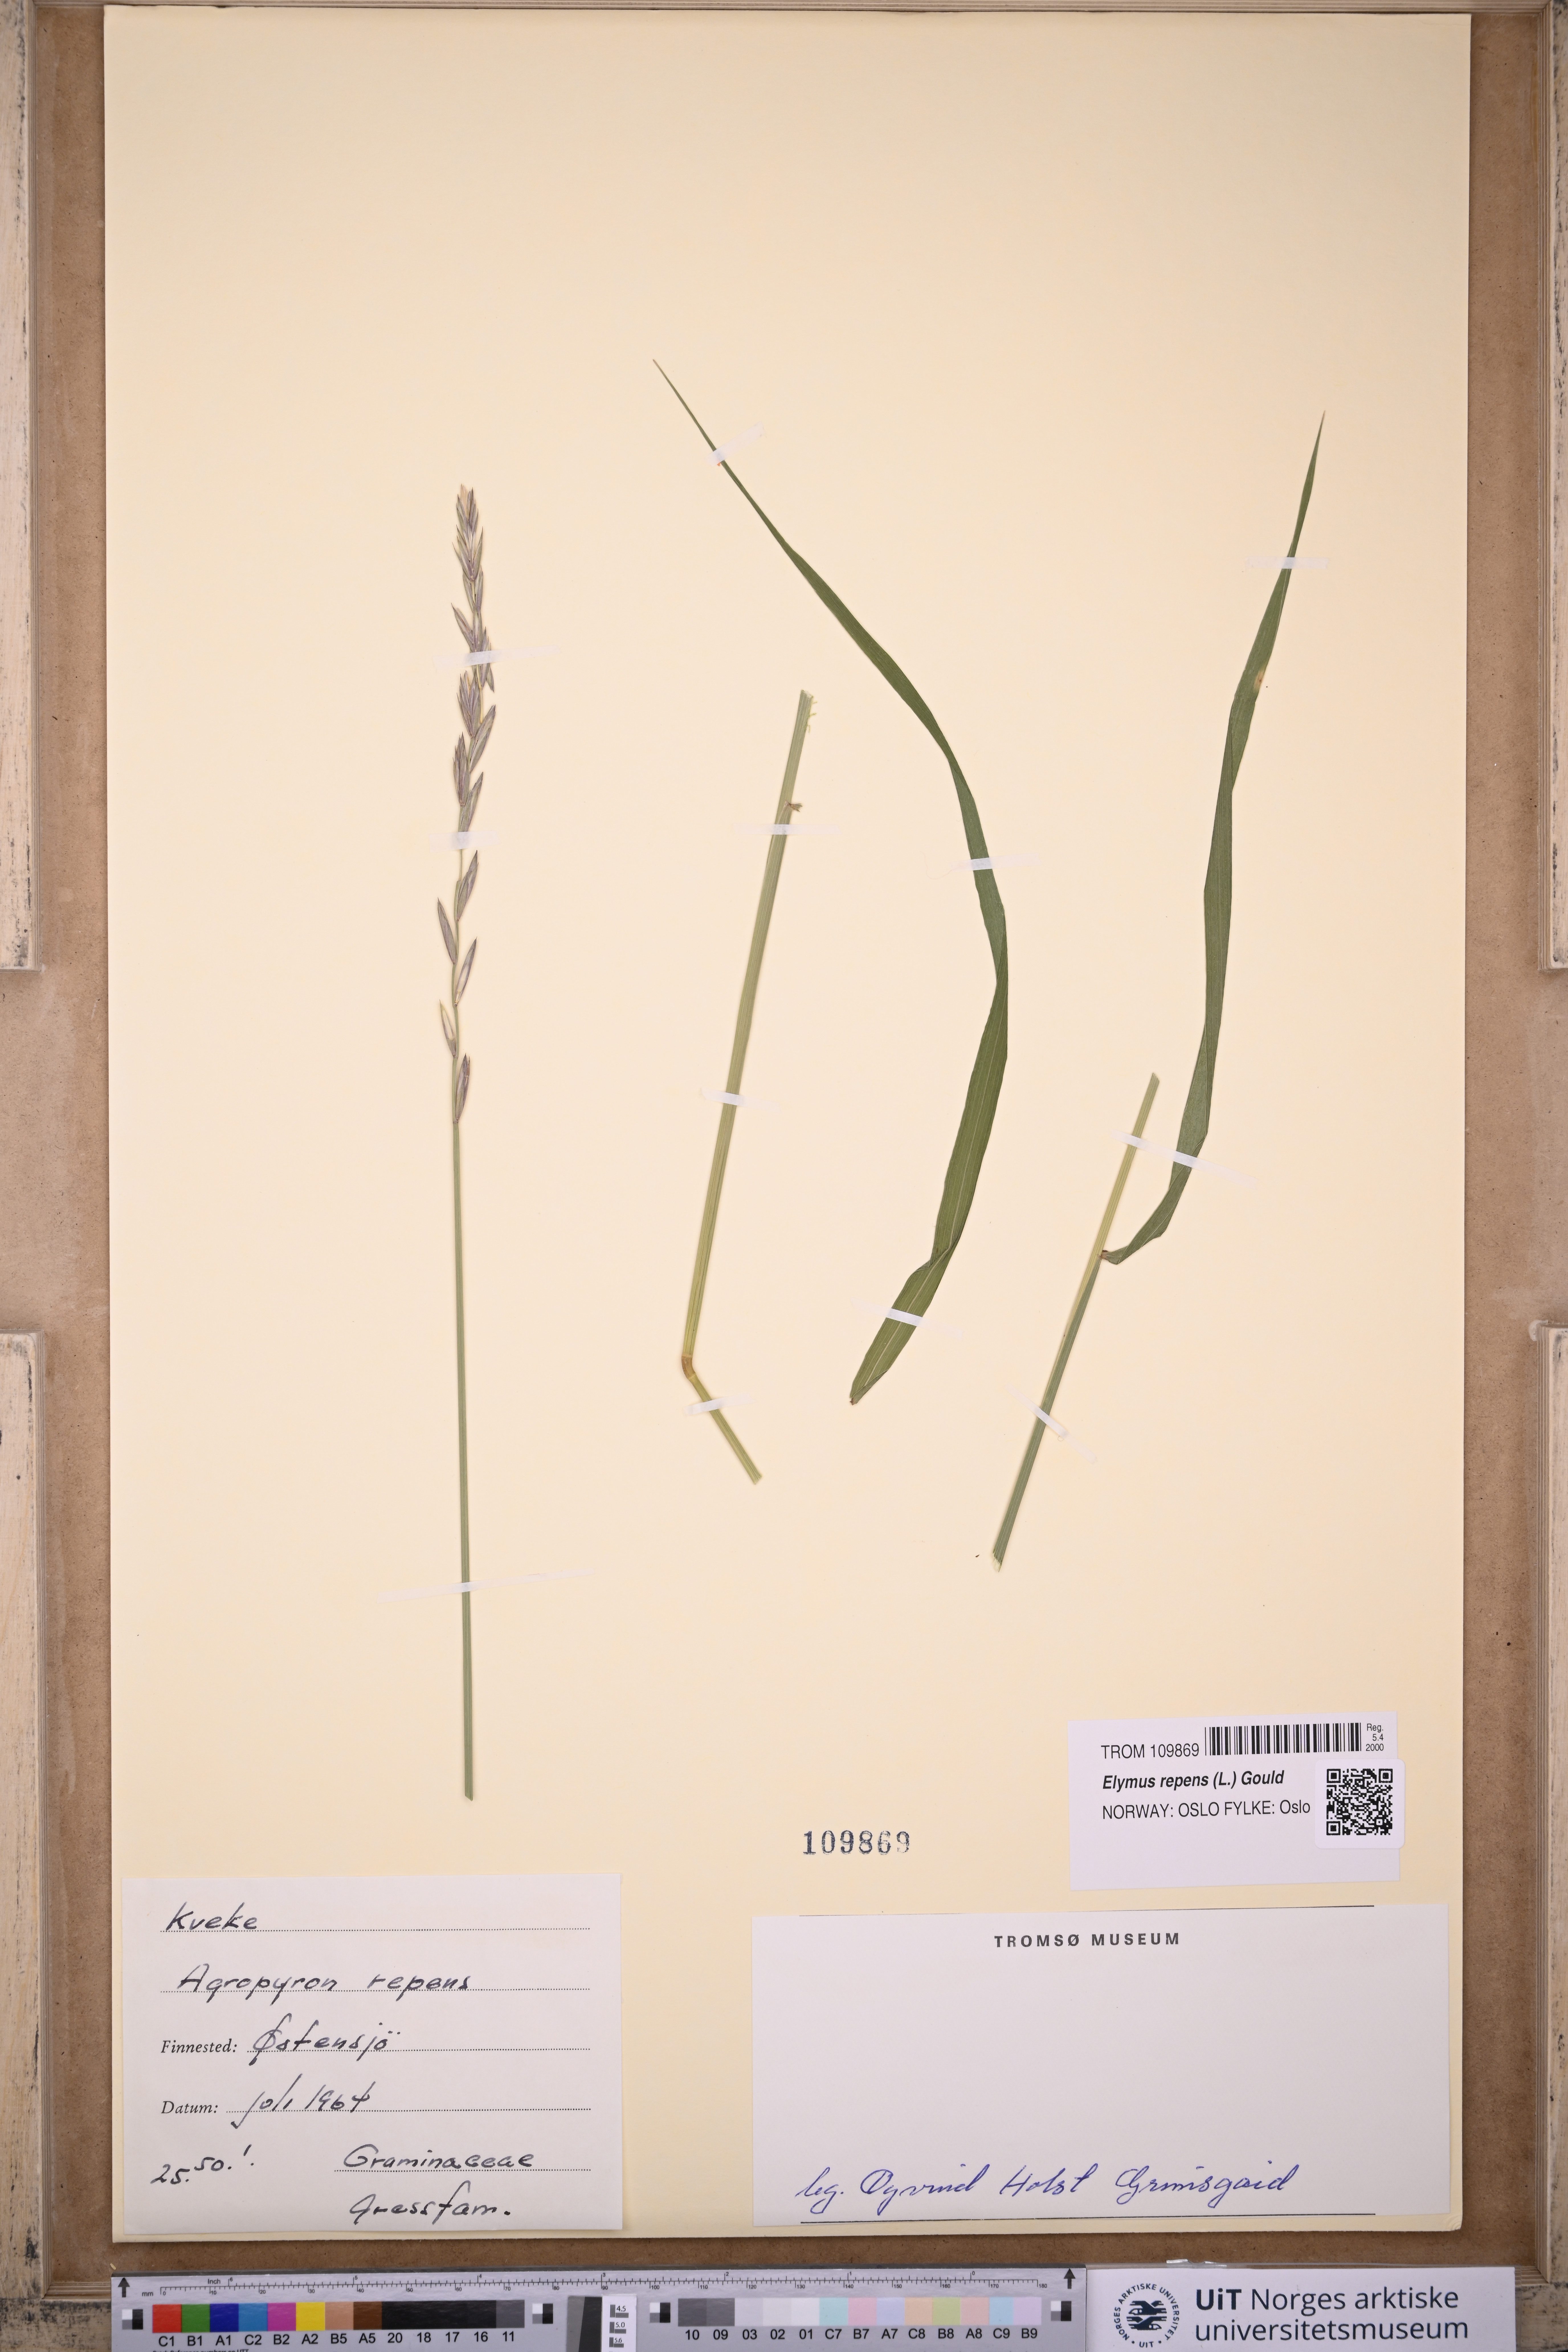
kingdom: Plantae
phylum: Tracheophyta
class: Liliopsida
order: Poales
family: Poaceae
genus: Elymus
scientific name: Elymus repens
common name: Quackgrass
